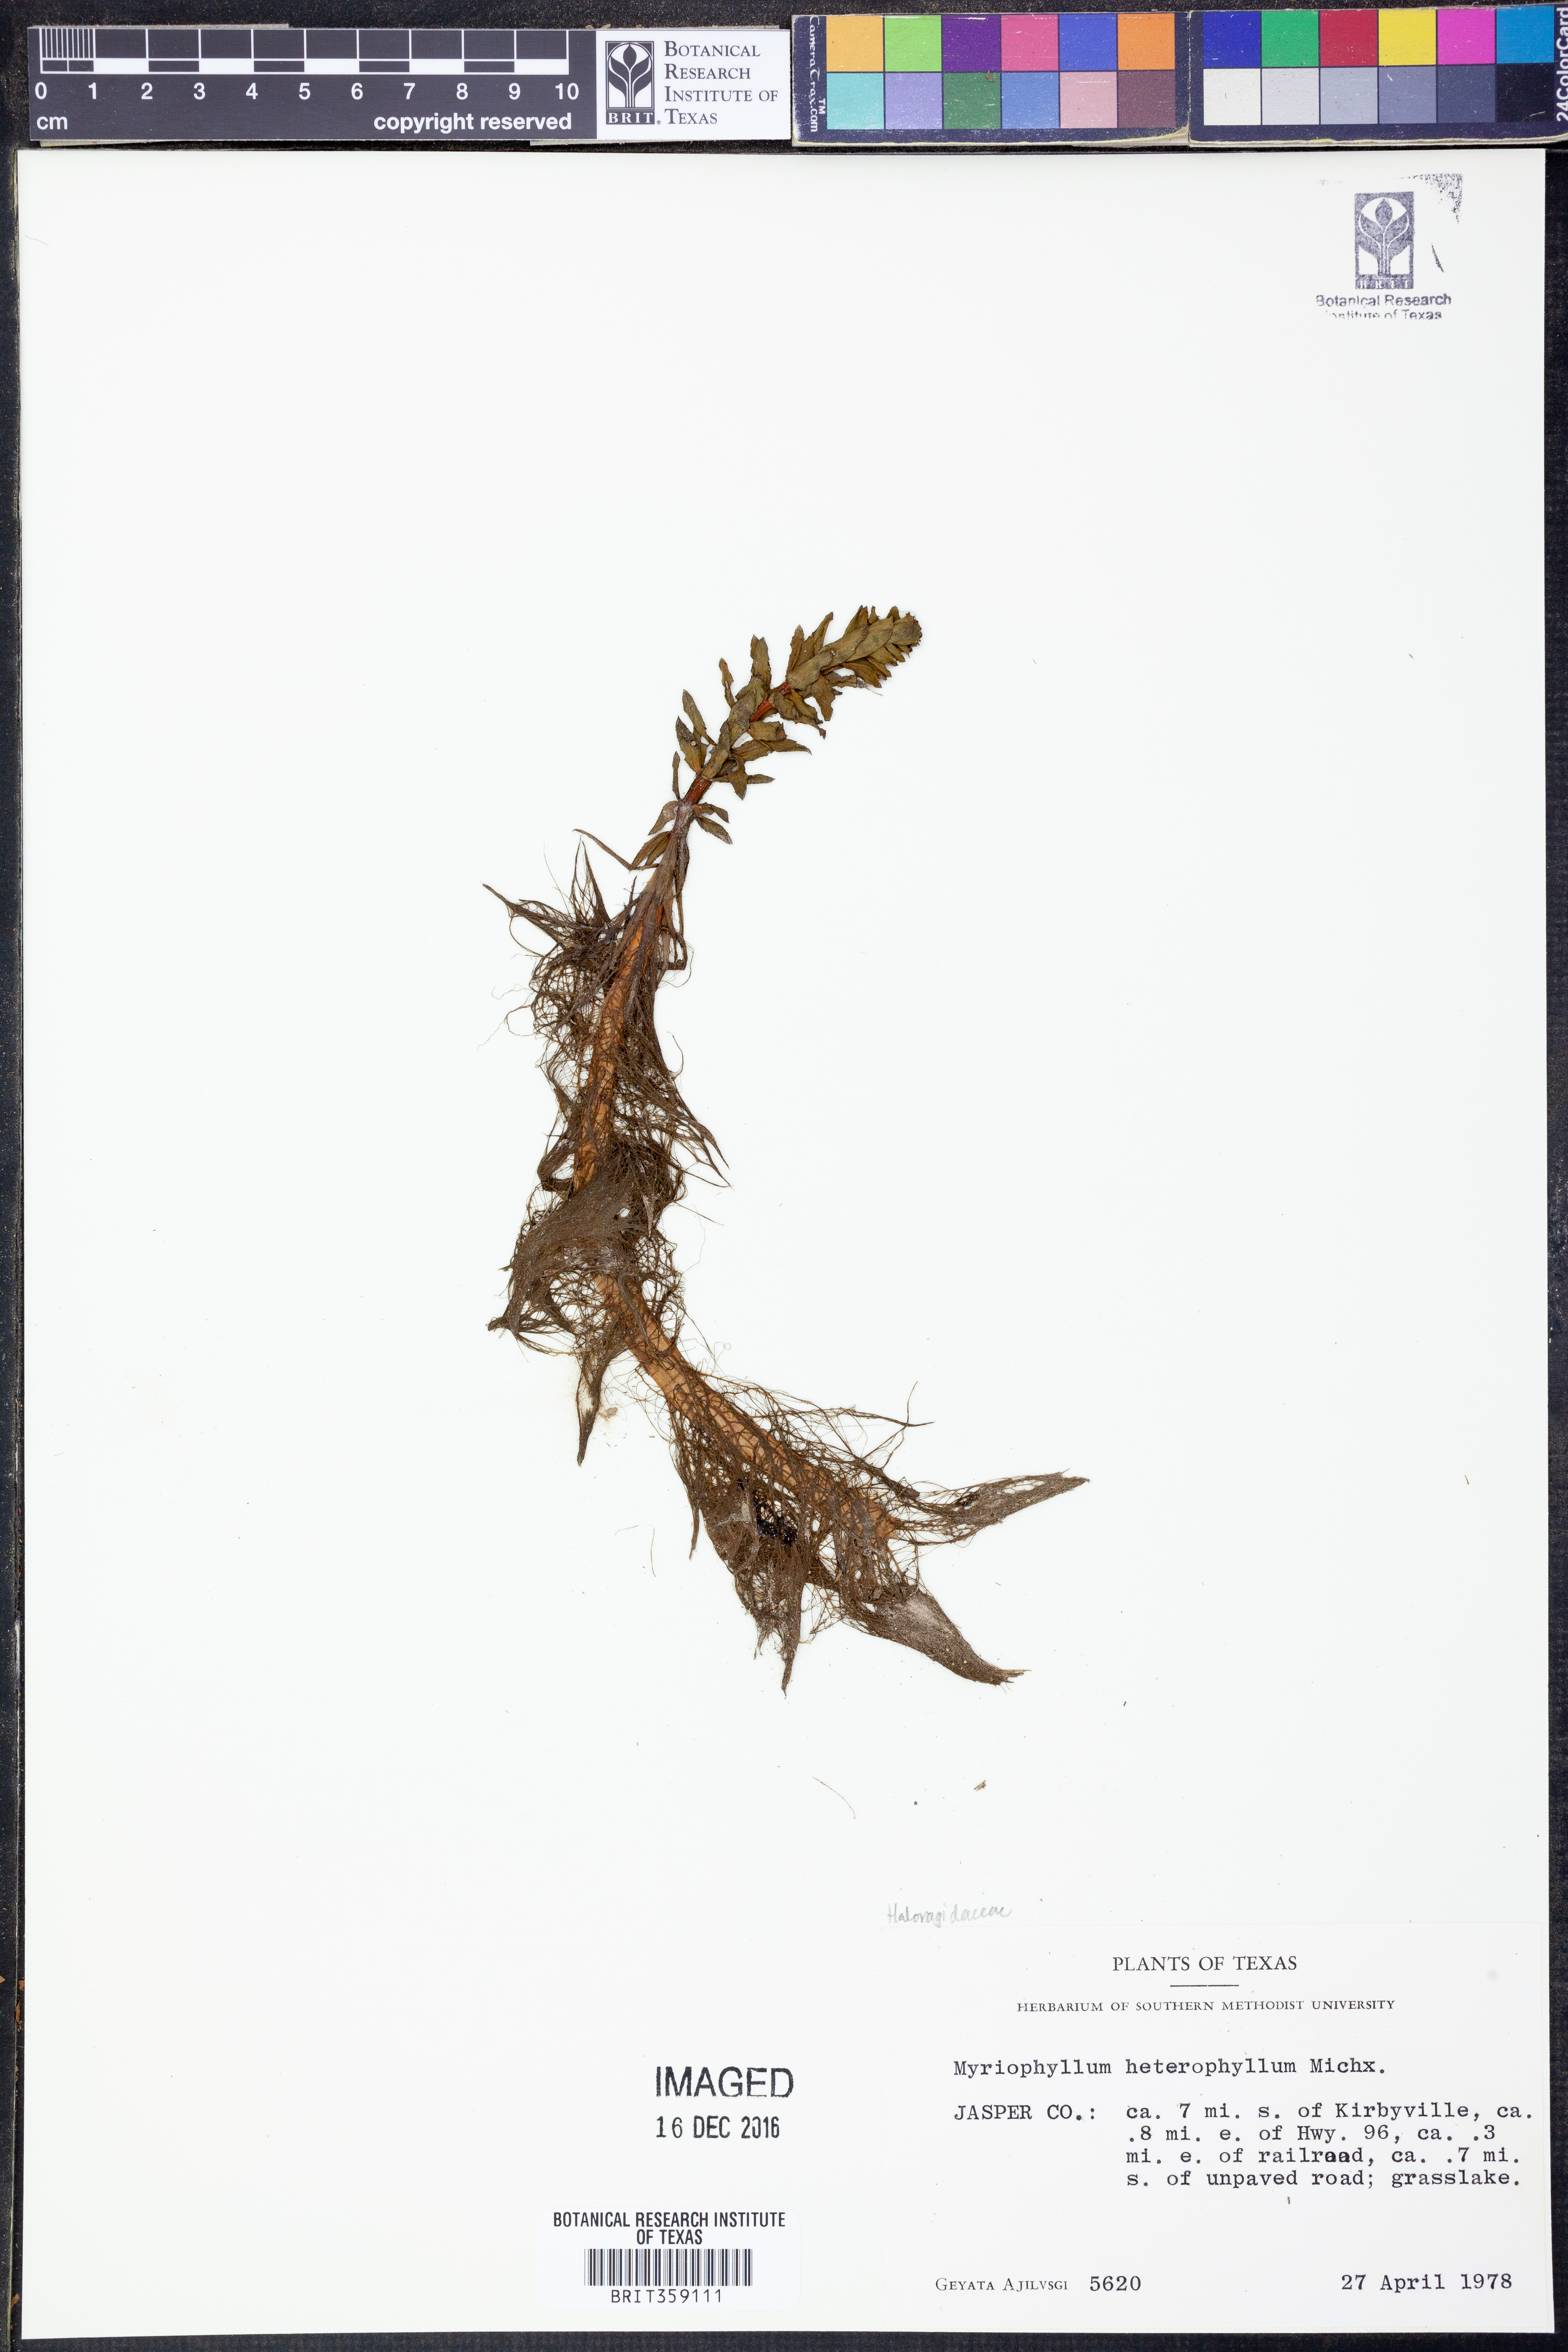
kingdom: Plantae
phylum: Tracheophyta
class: Magnoliopsida
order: Saxifragales
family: Haloragaceae
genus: Myriophyllum
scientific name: Myriophyllum heterophyllum
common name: Variable watermilfoil
